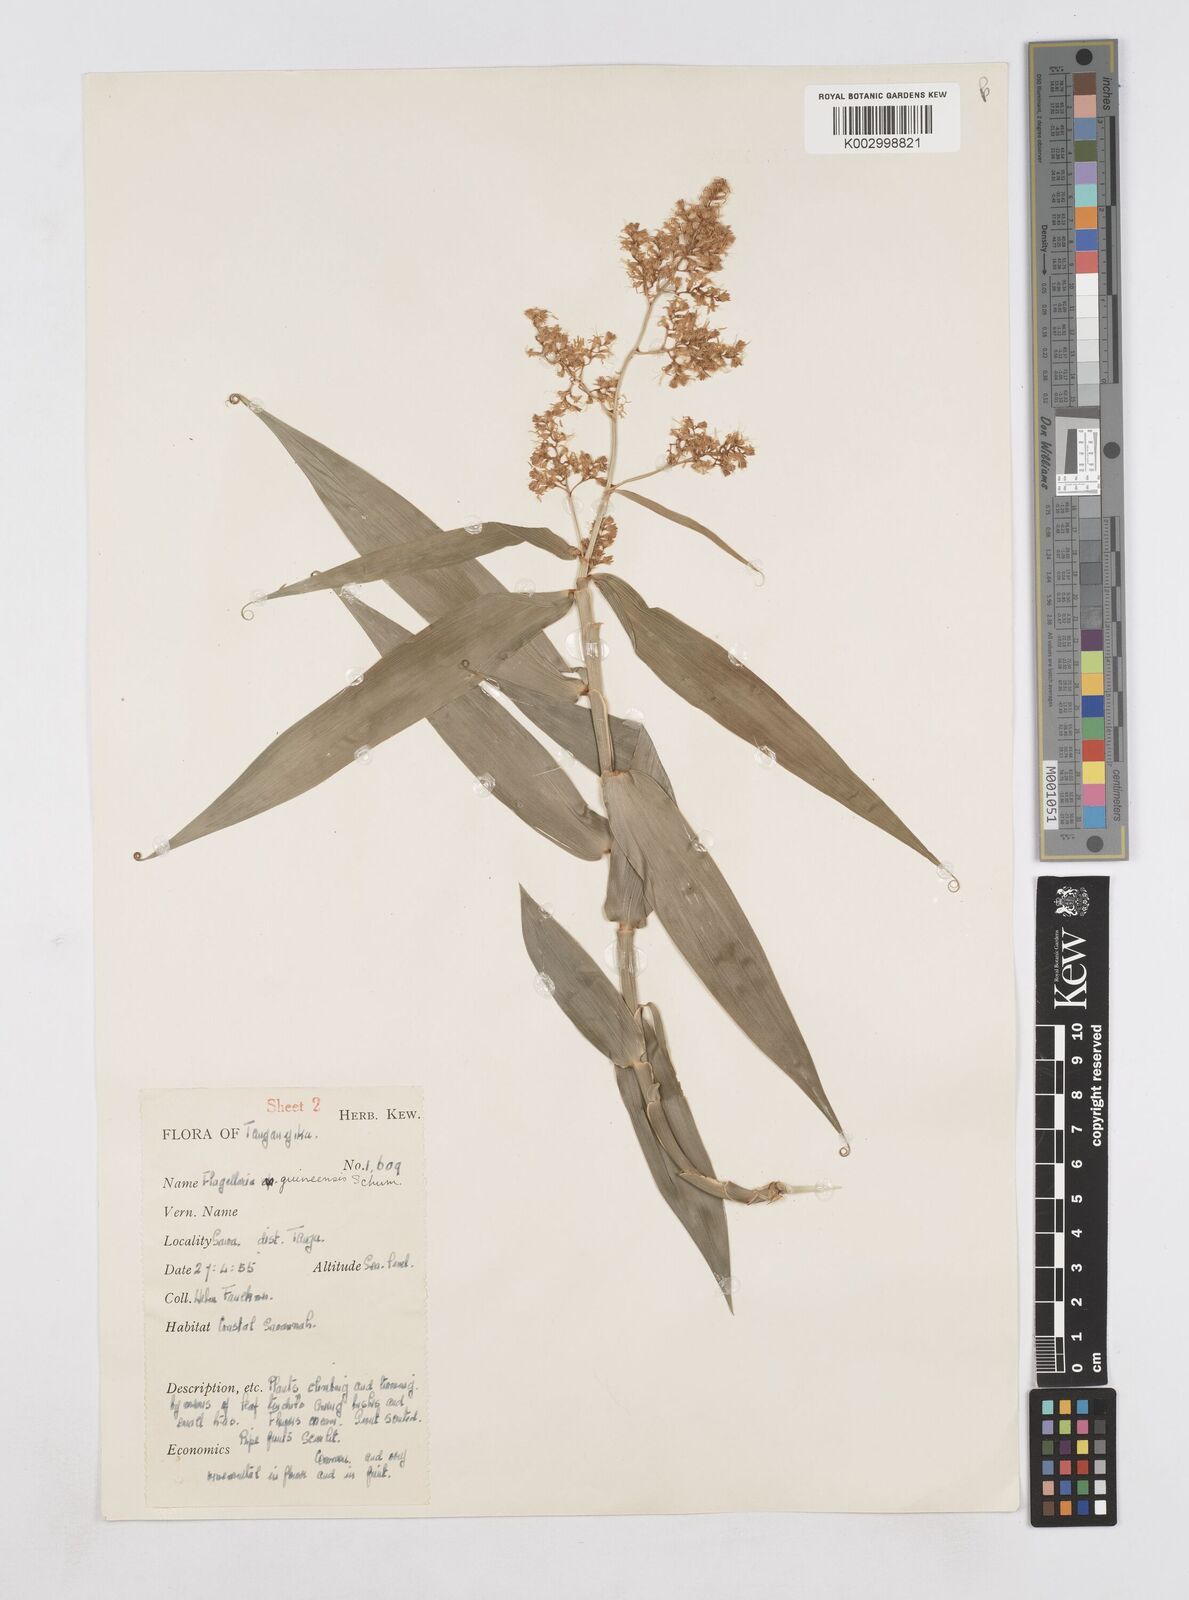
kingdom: Plantae
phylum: Tracheophyta
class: Liliopsida
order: Poales
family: Flagellariaceae
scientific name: Flagellariaceae
